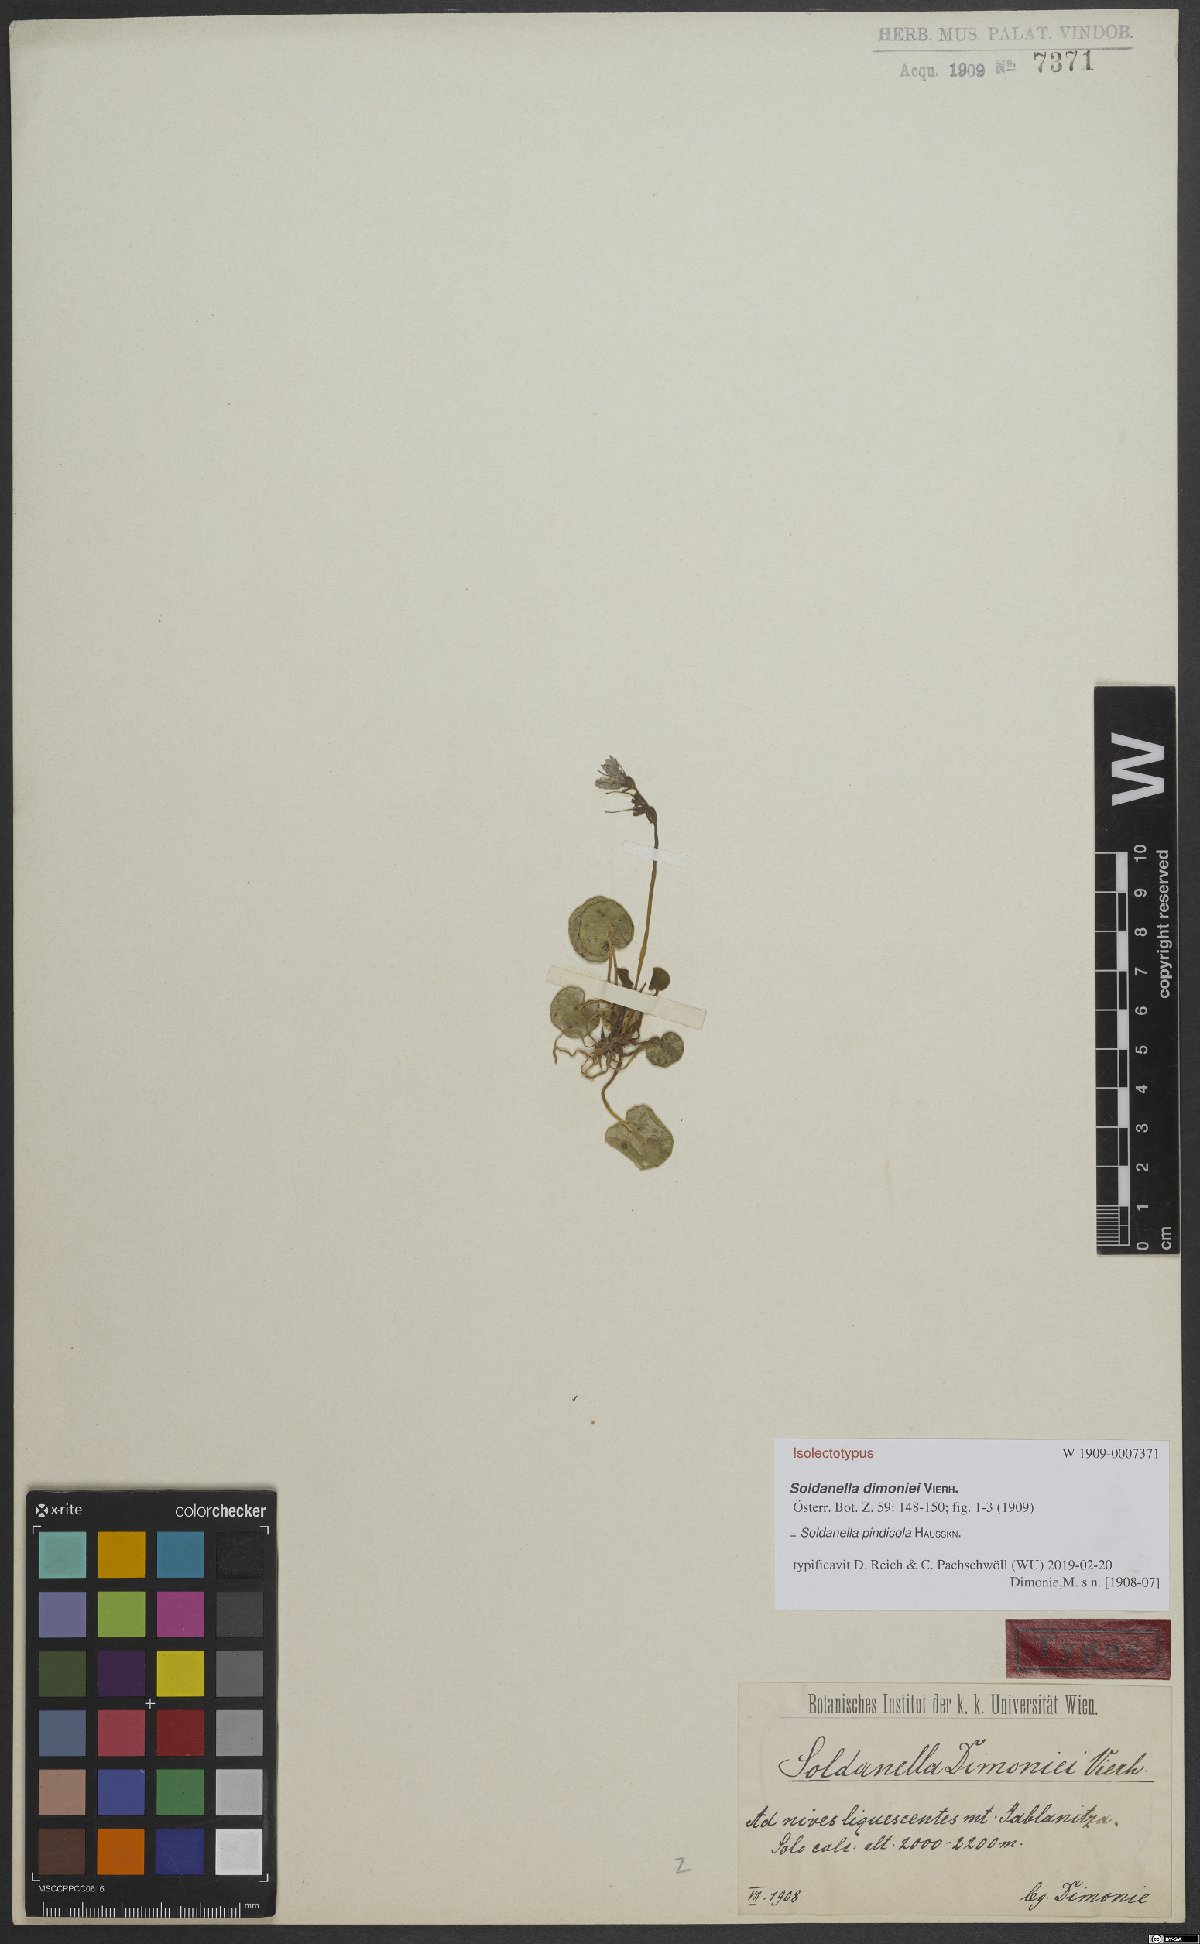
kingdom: Plantae
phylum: Tracheophyta
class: Magnoliopsida
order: Ericales
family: Primulaceae
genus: Soldanella
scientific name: Soldanella pindicola
